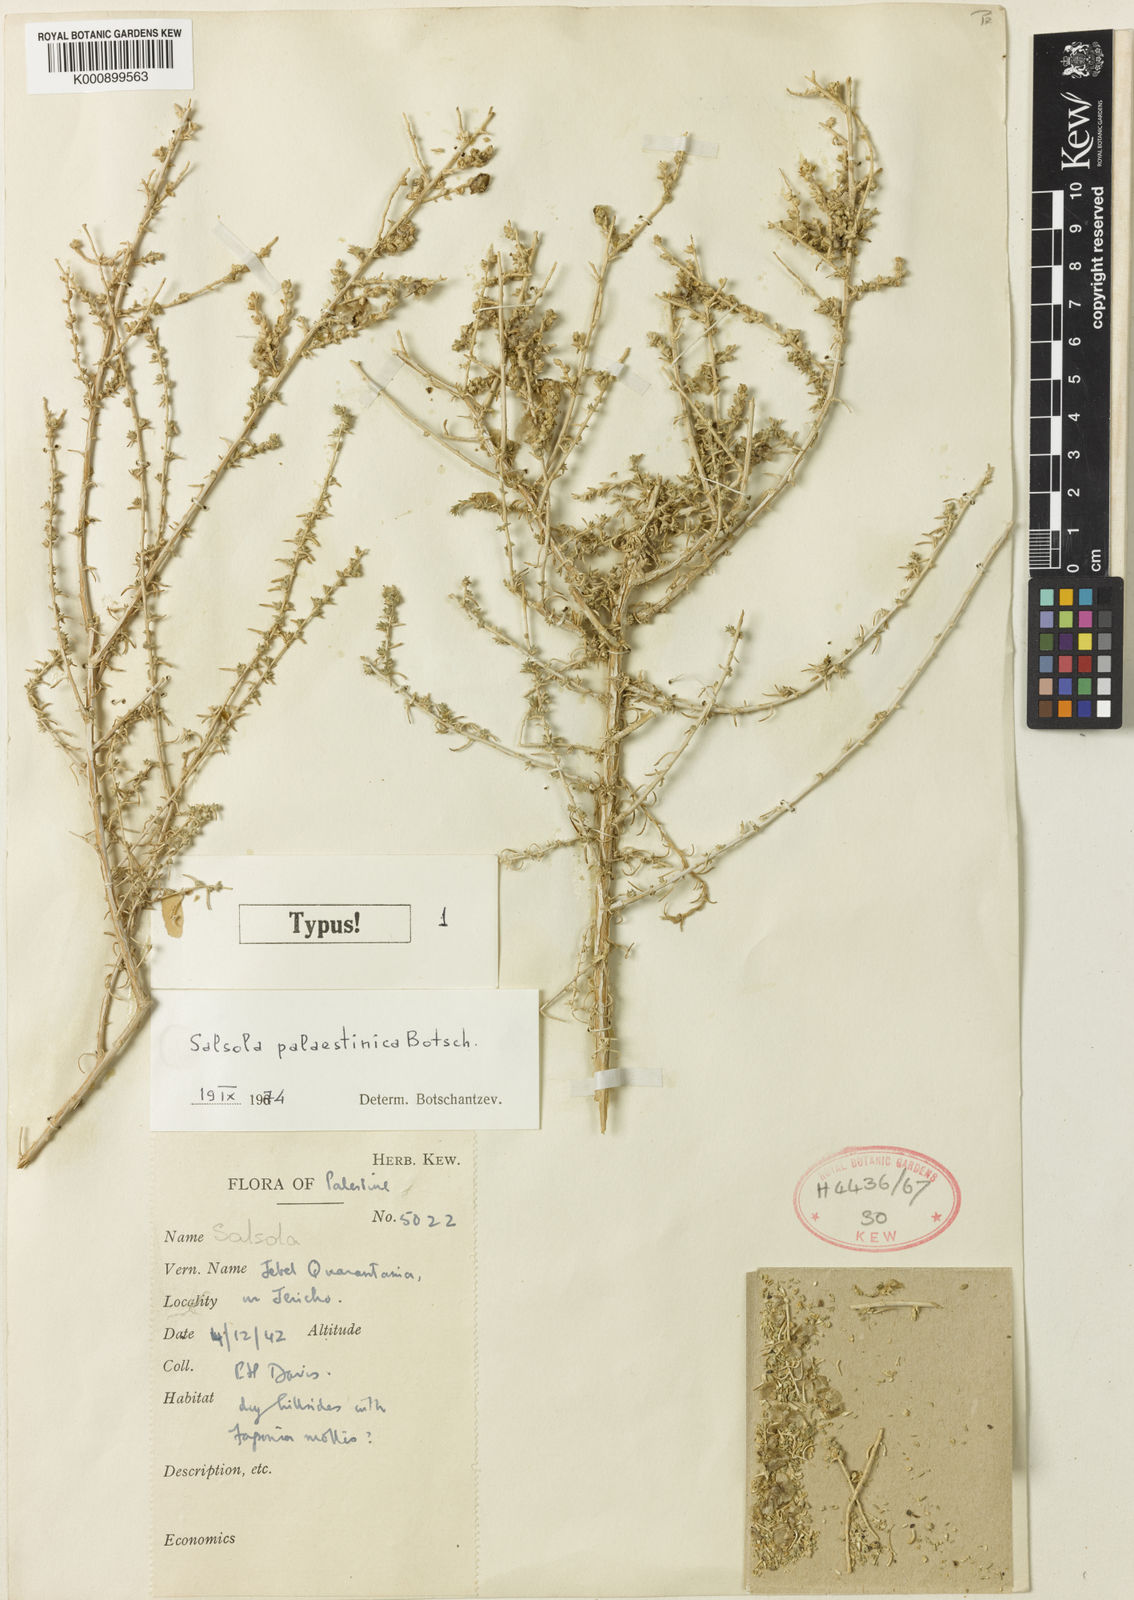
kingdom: Plantae
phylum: Tracheophyta
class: Magnoliopsida
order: Caryophyllales
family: Amaranthaceae
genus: Nitrosalsola
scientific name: Nitrosalsola vermiculata
